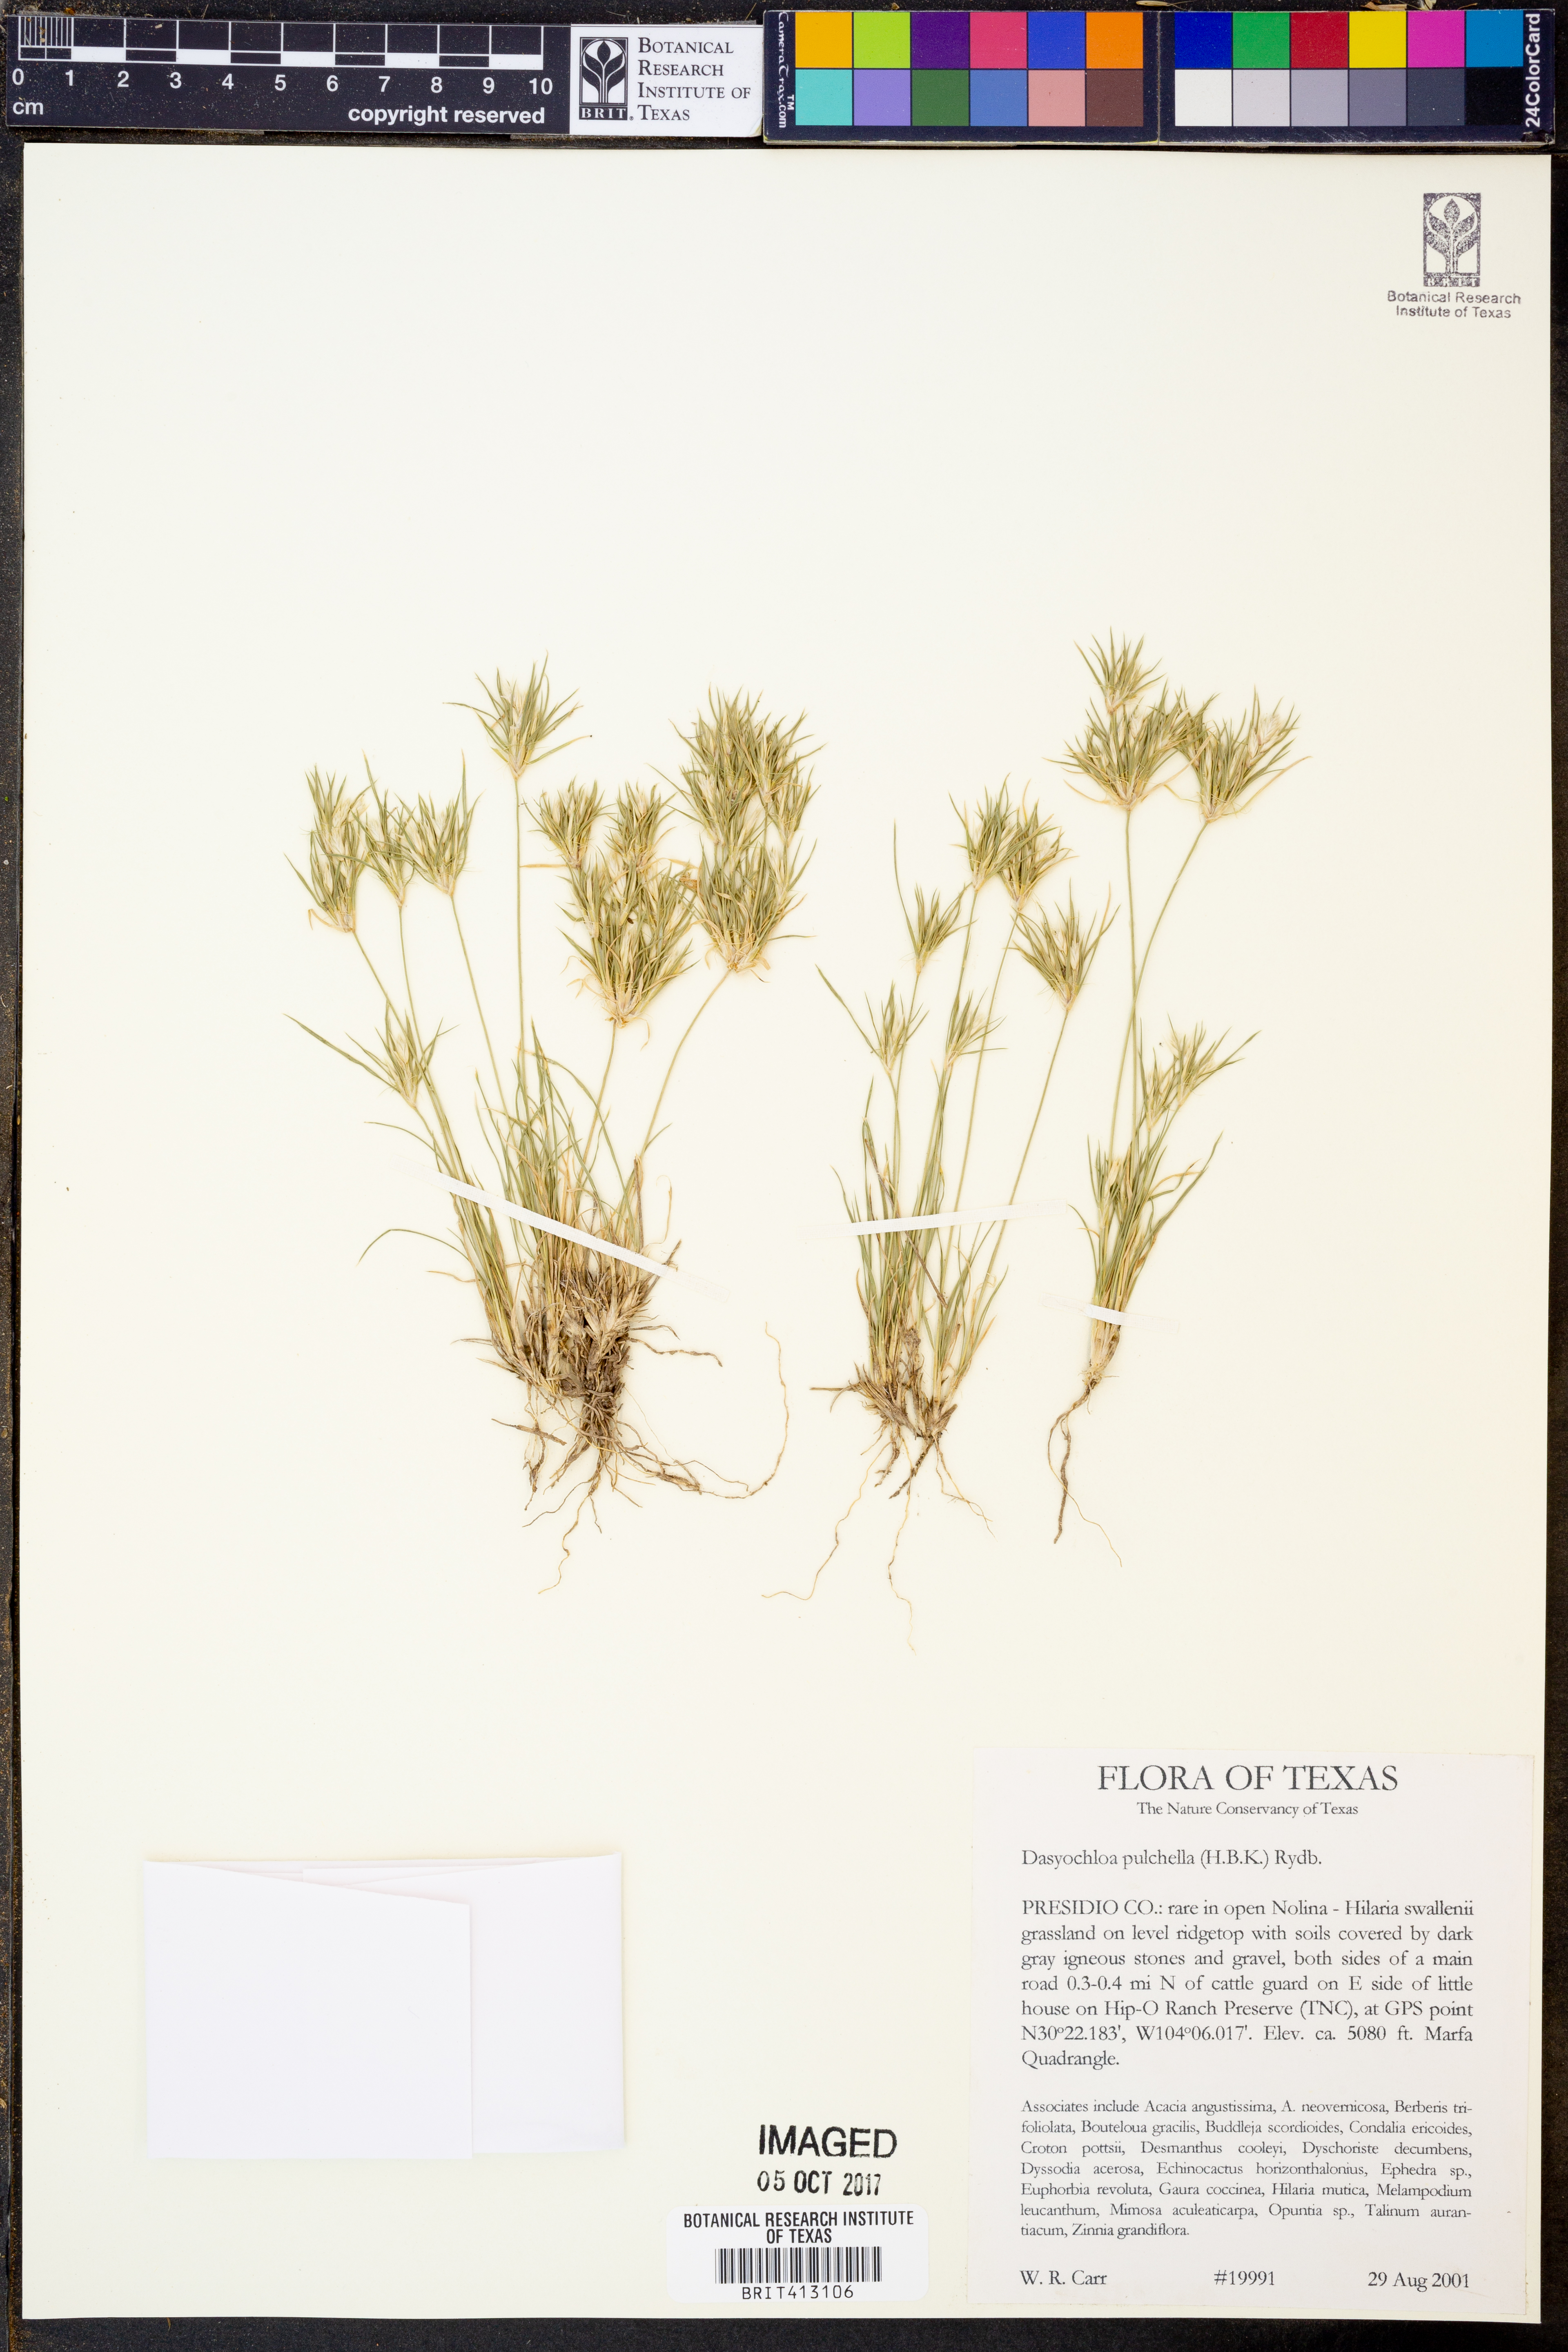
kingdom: Plantae
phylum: Tracheophyta
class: Liliopsida
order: Poales
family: Poaceae
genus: Munroa
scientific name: Munroa pulchella
